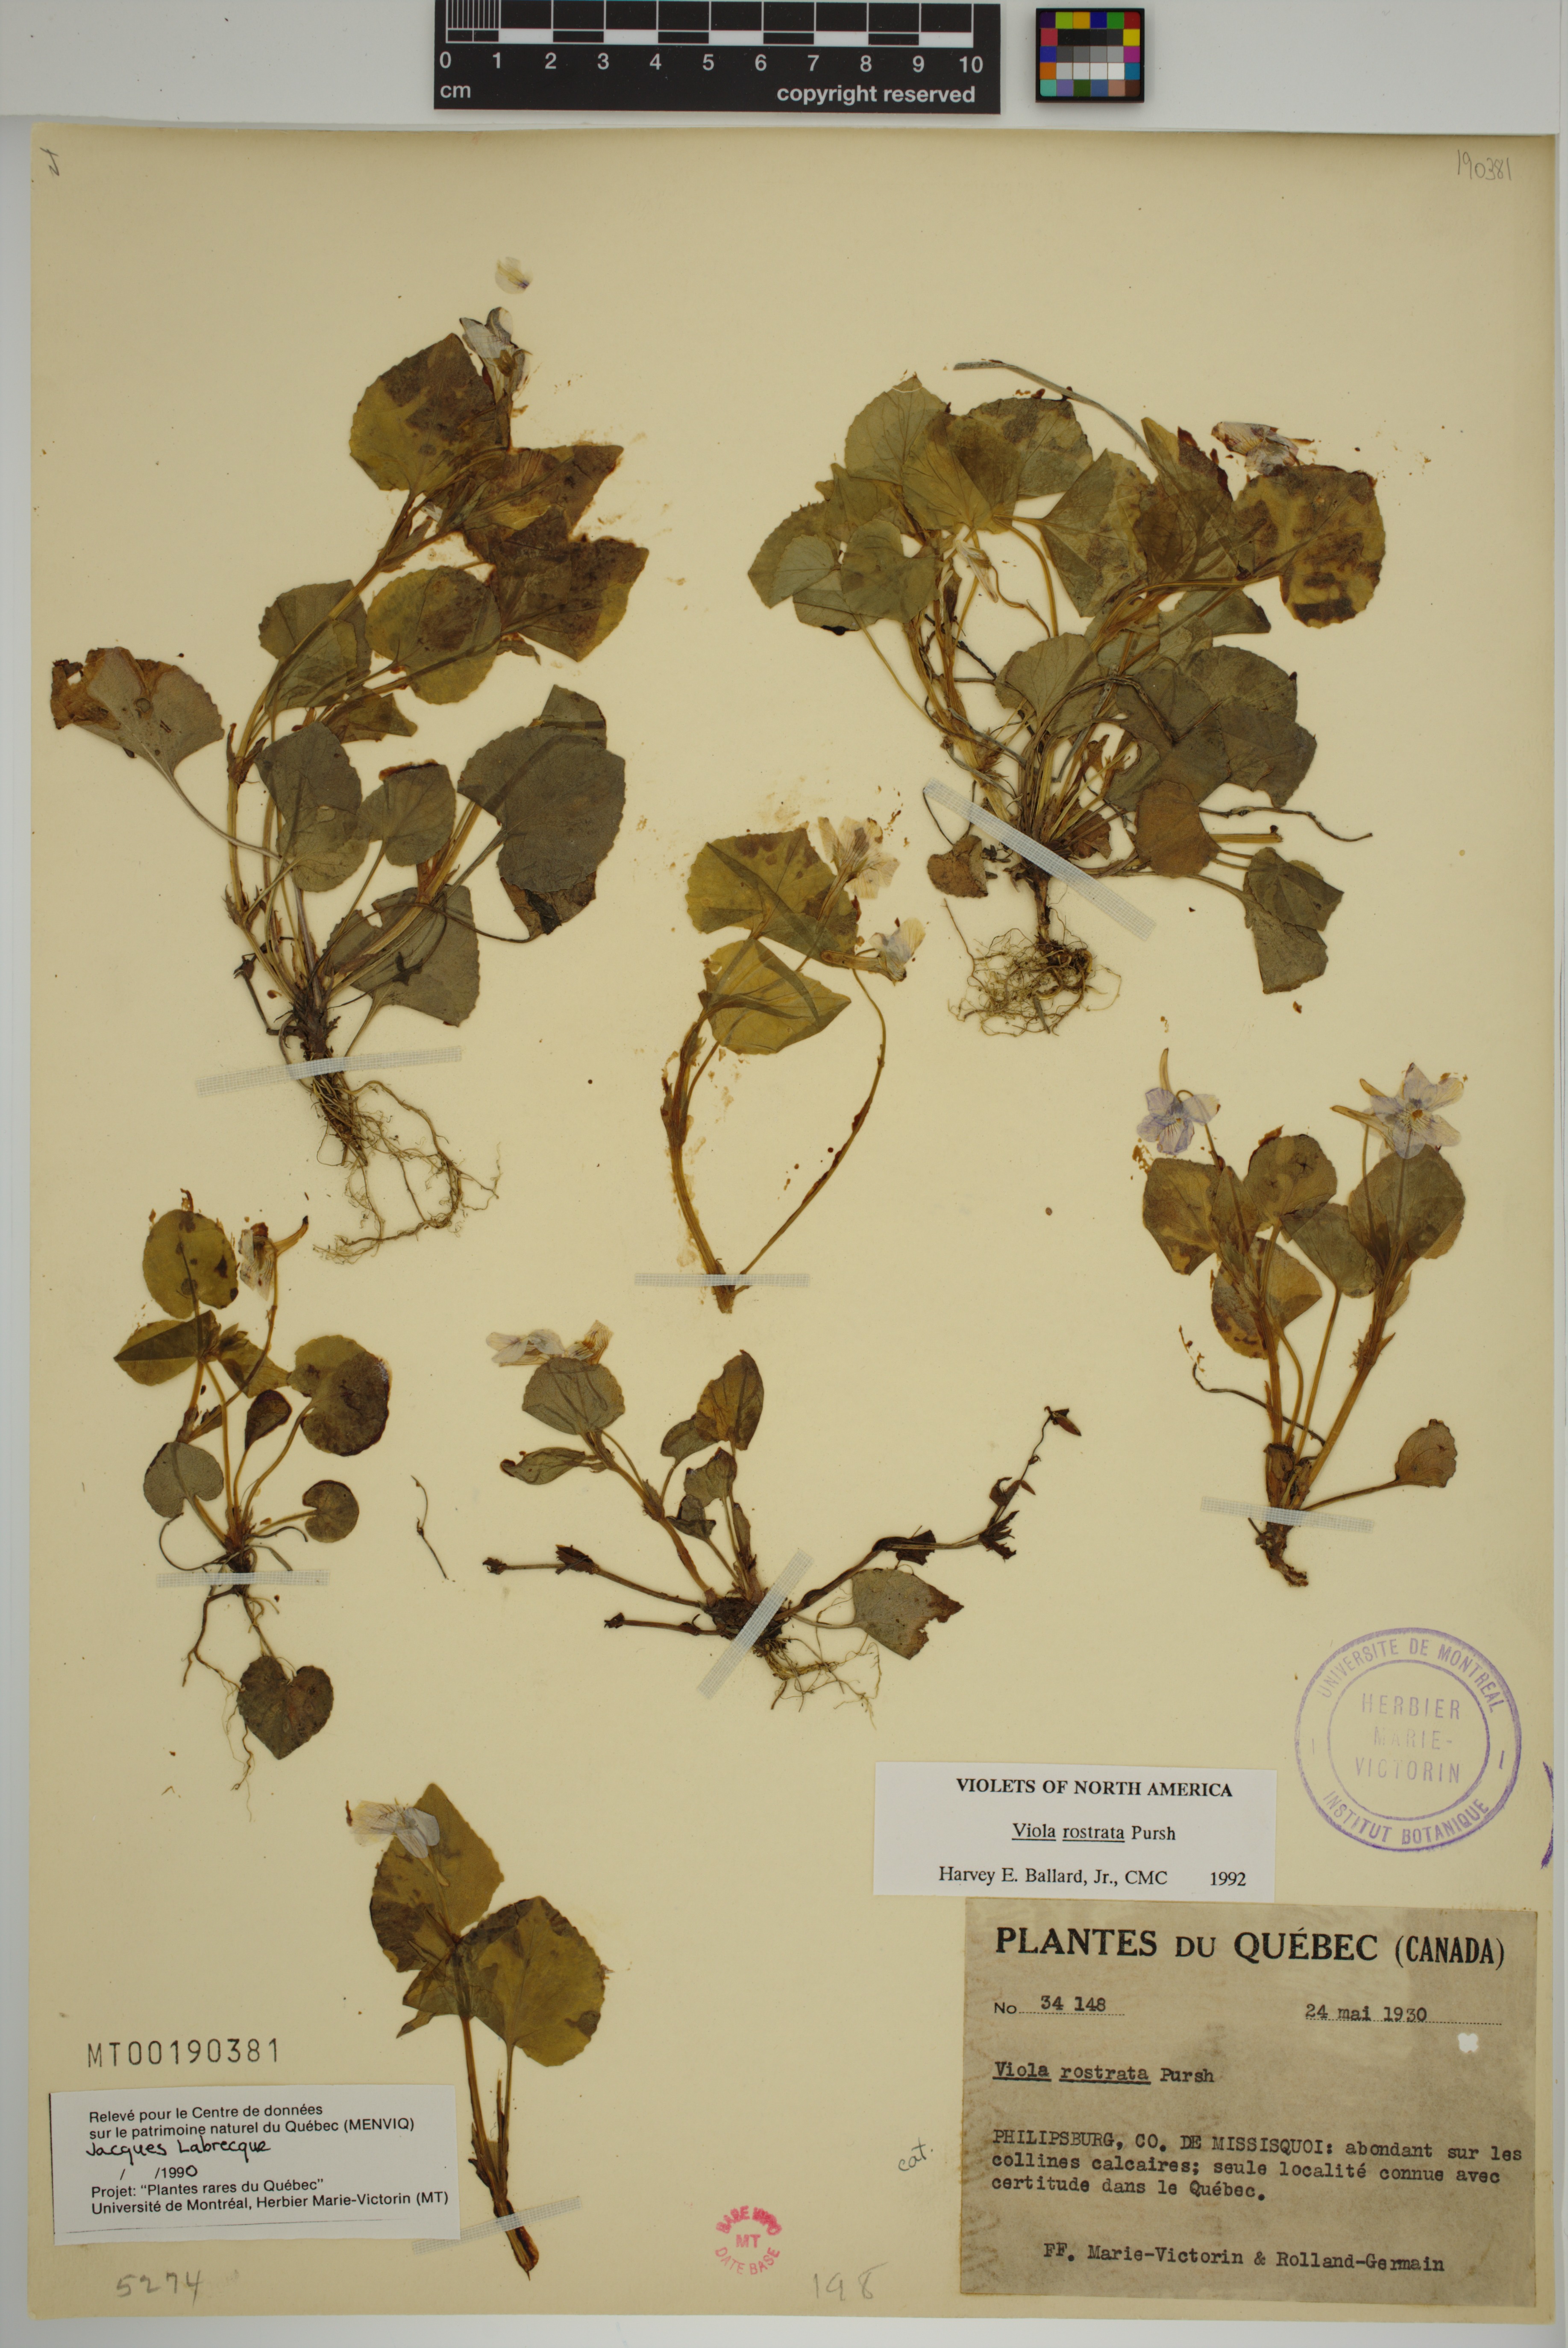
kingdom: Plantae
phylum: Tracheophyta
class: Magnoliopsida
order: Malpighiales
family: Violaceae
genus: Viola
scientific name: Viola rostrata
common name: Long-spur violet
